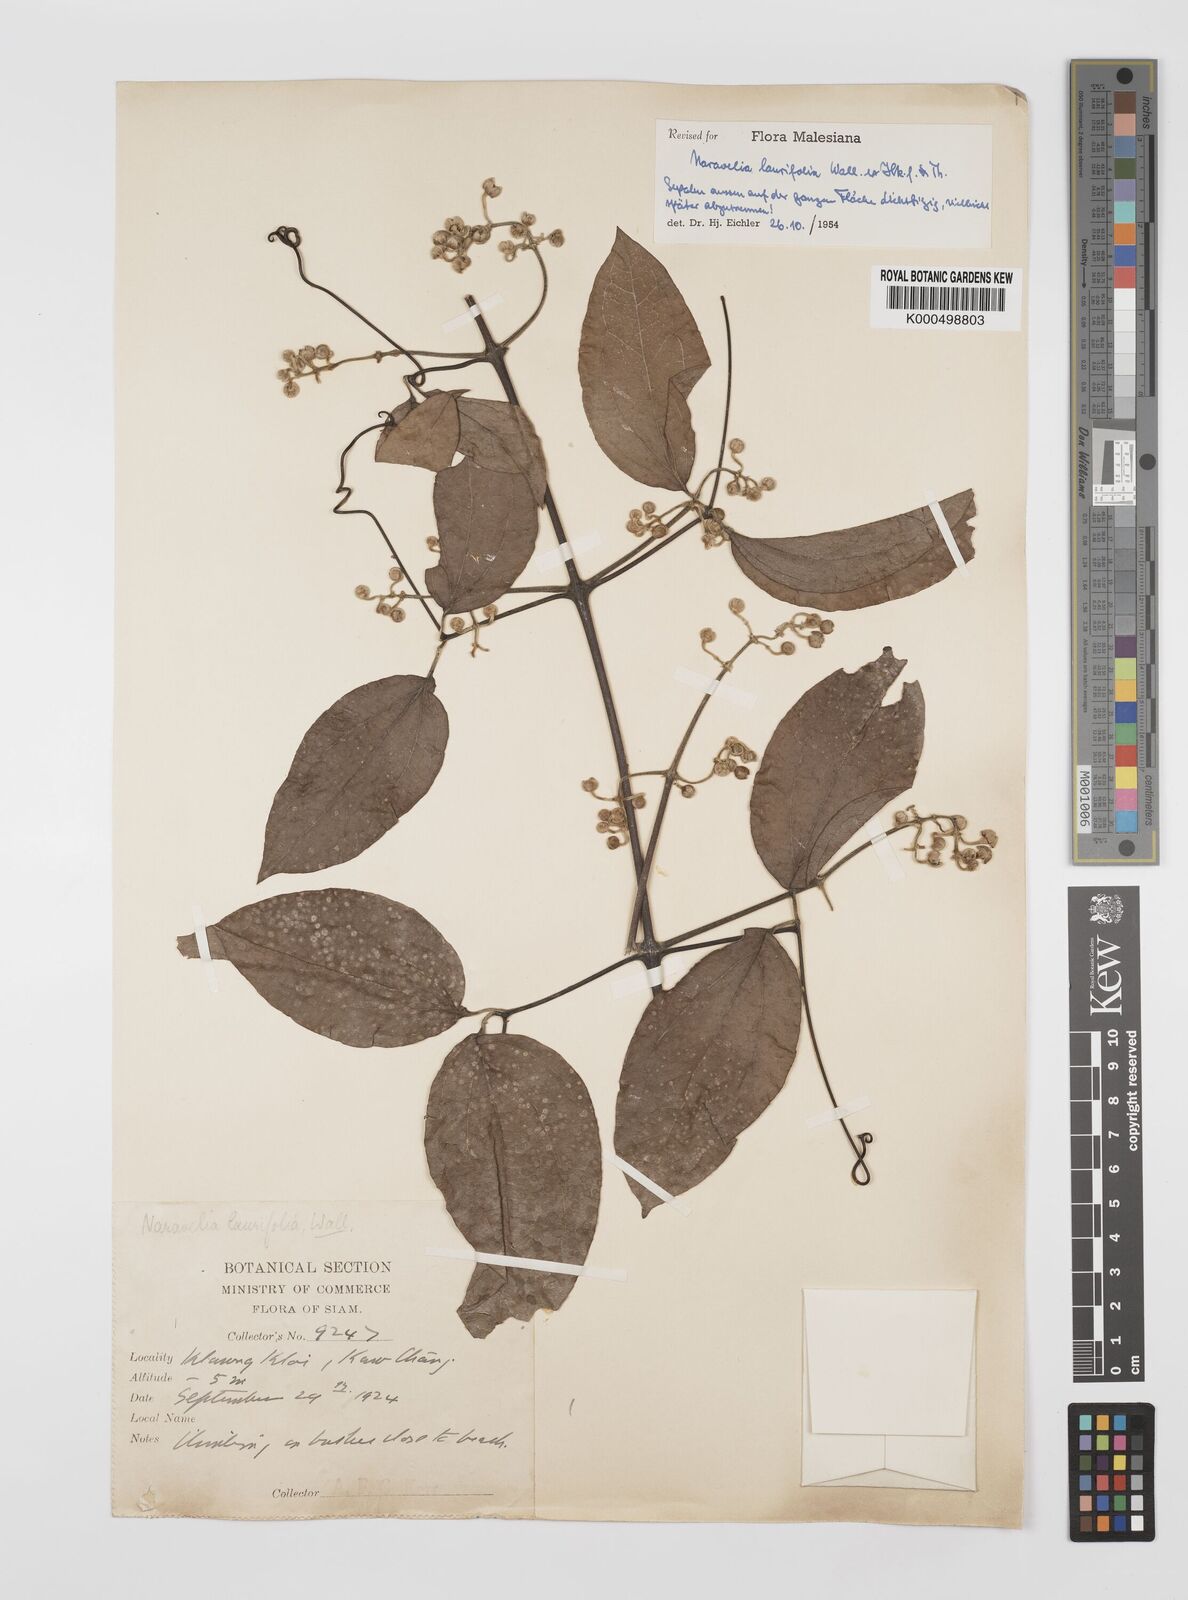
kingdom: Plantae
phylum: Tracheophyta
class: Magnoliopsida
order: Ranunculales
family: Ranunculaceae
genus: Clematis
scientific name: Clematis horripilata
